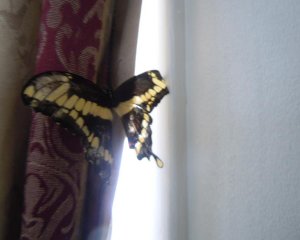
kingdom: Animalia
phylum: Arthropoda
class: Insecta
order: Lepidoptera
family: Papilionidae
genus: Papilio
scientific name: Papilio cresphontes
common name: Eastern Giant Swallowtail
